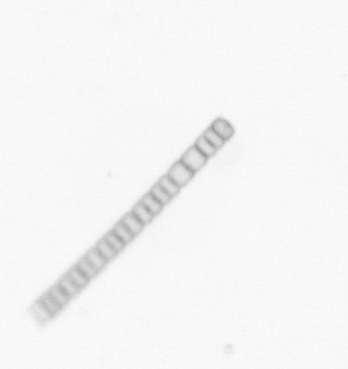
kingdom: Chromista
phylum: Ochrophyta
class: Bacillariophyceae
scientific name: Bacillariophyceae
